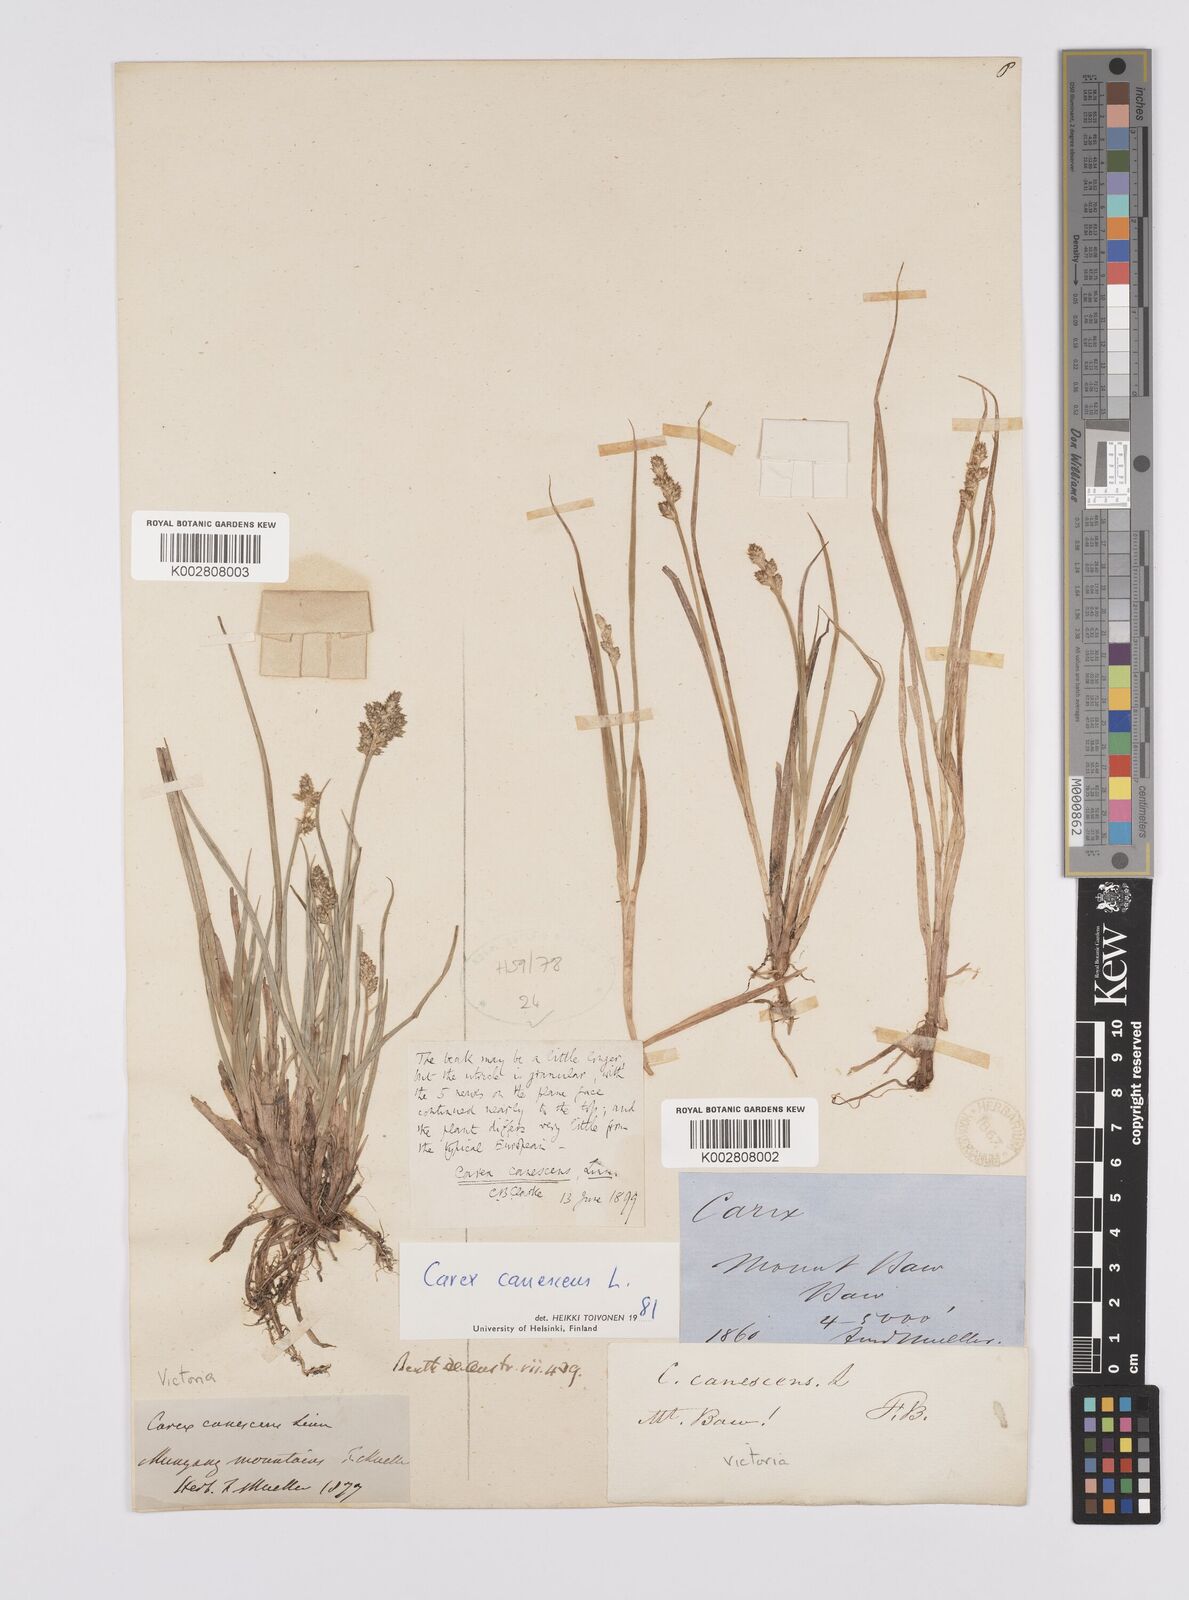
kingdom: Plantae
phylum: Tracheophyta
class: Liliopsida
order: Poales
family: Cyperaceae
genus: Carex
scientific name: Carex curta
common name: White sedge
